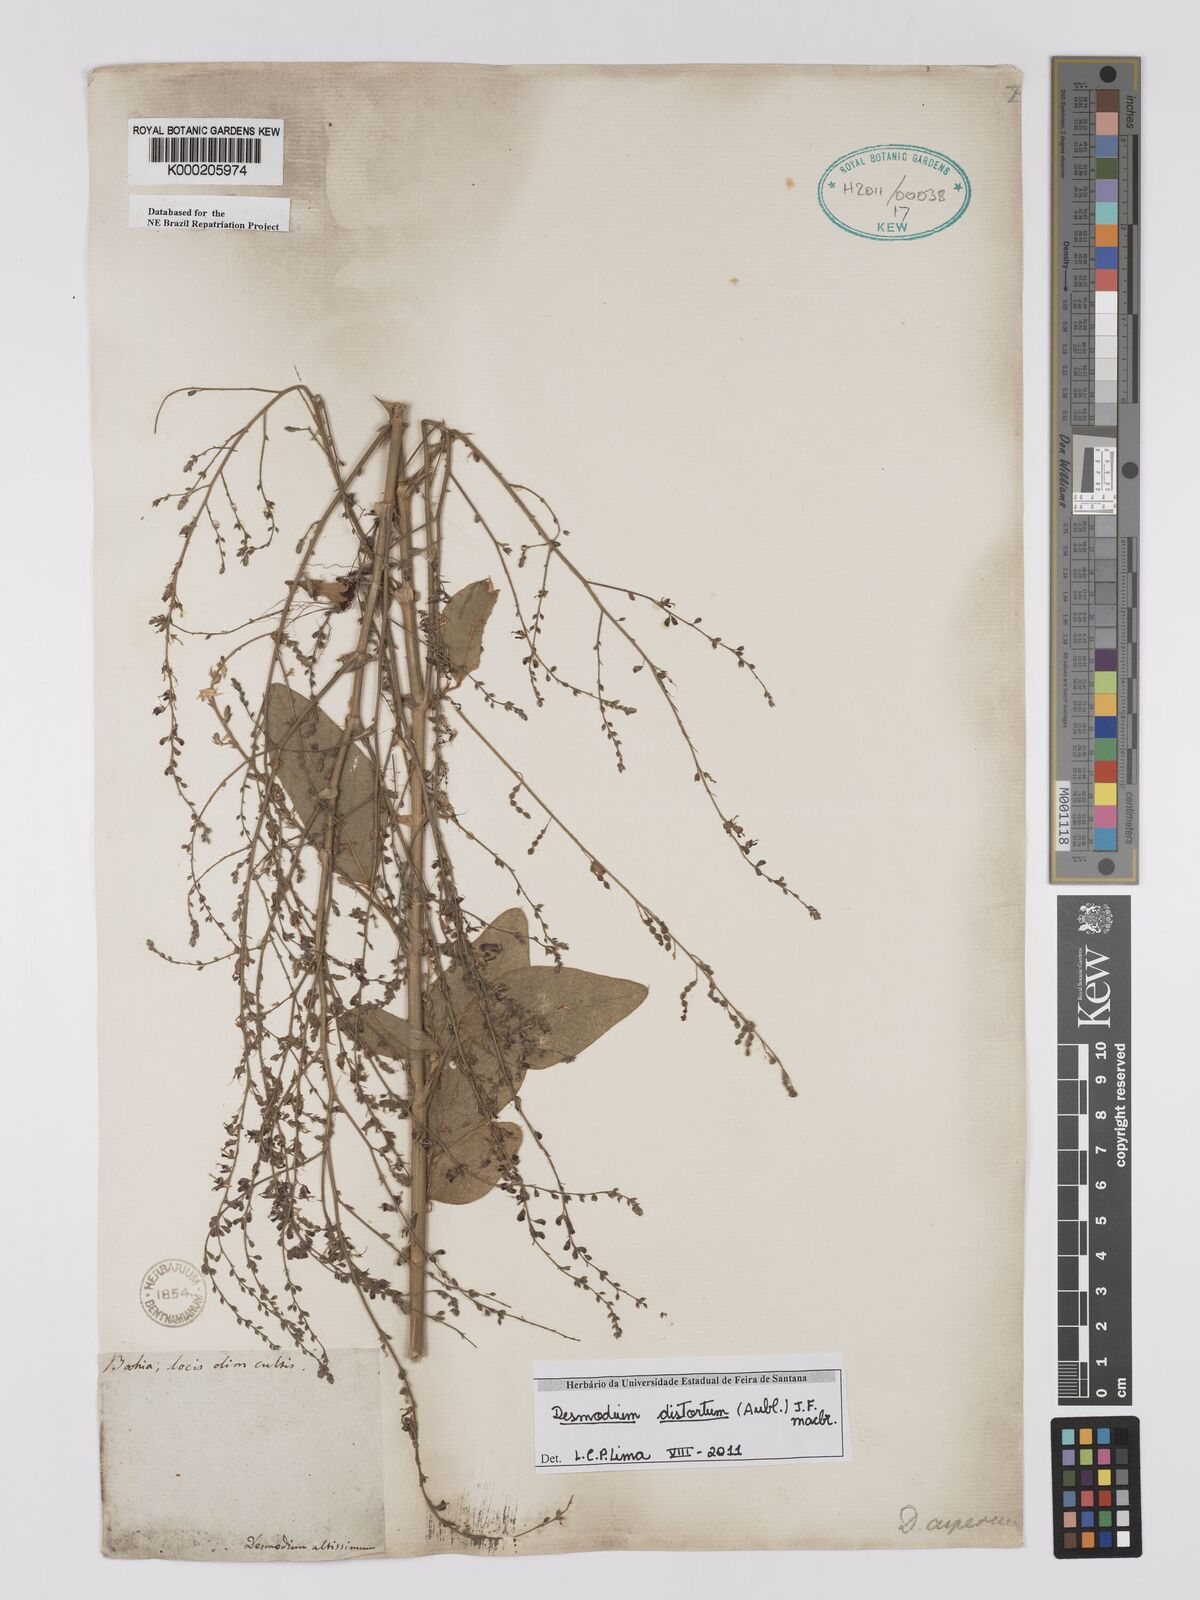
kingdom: Plantae
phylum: Tracheophyta
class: Magnoliopsida
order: Fabales
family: Fabaceae
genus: Desmodium
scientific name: Desmodium distortum
